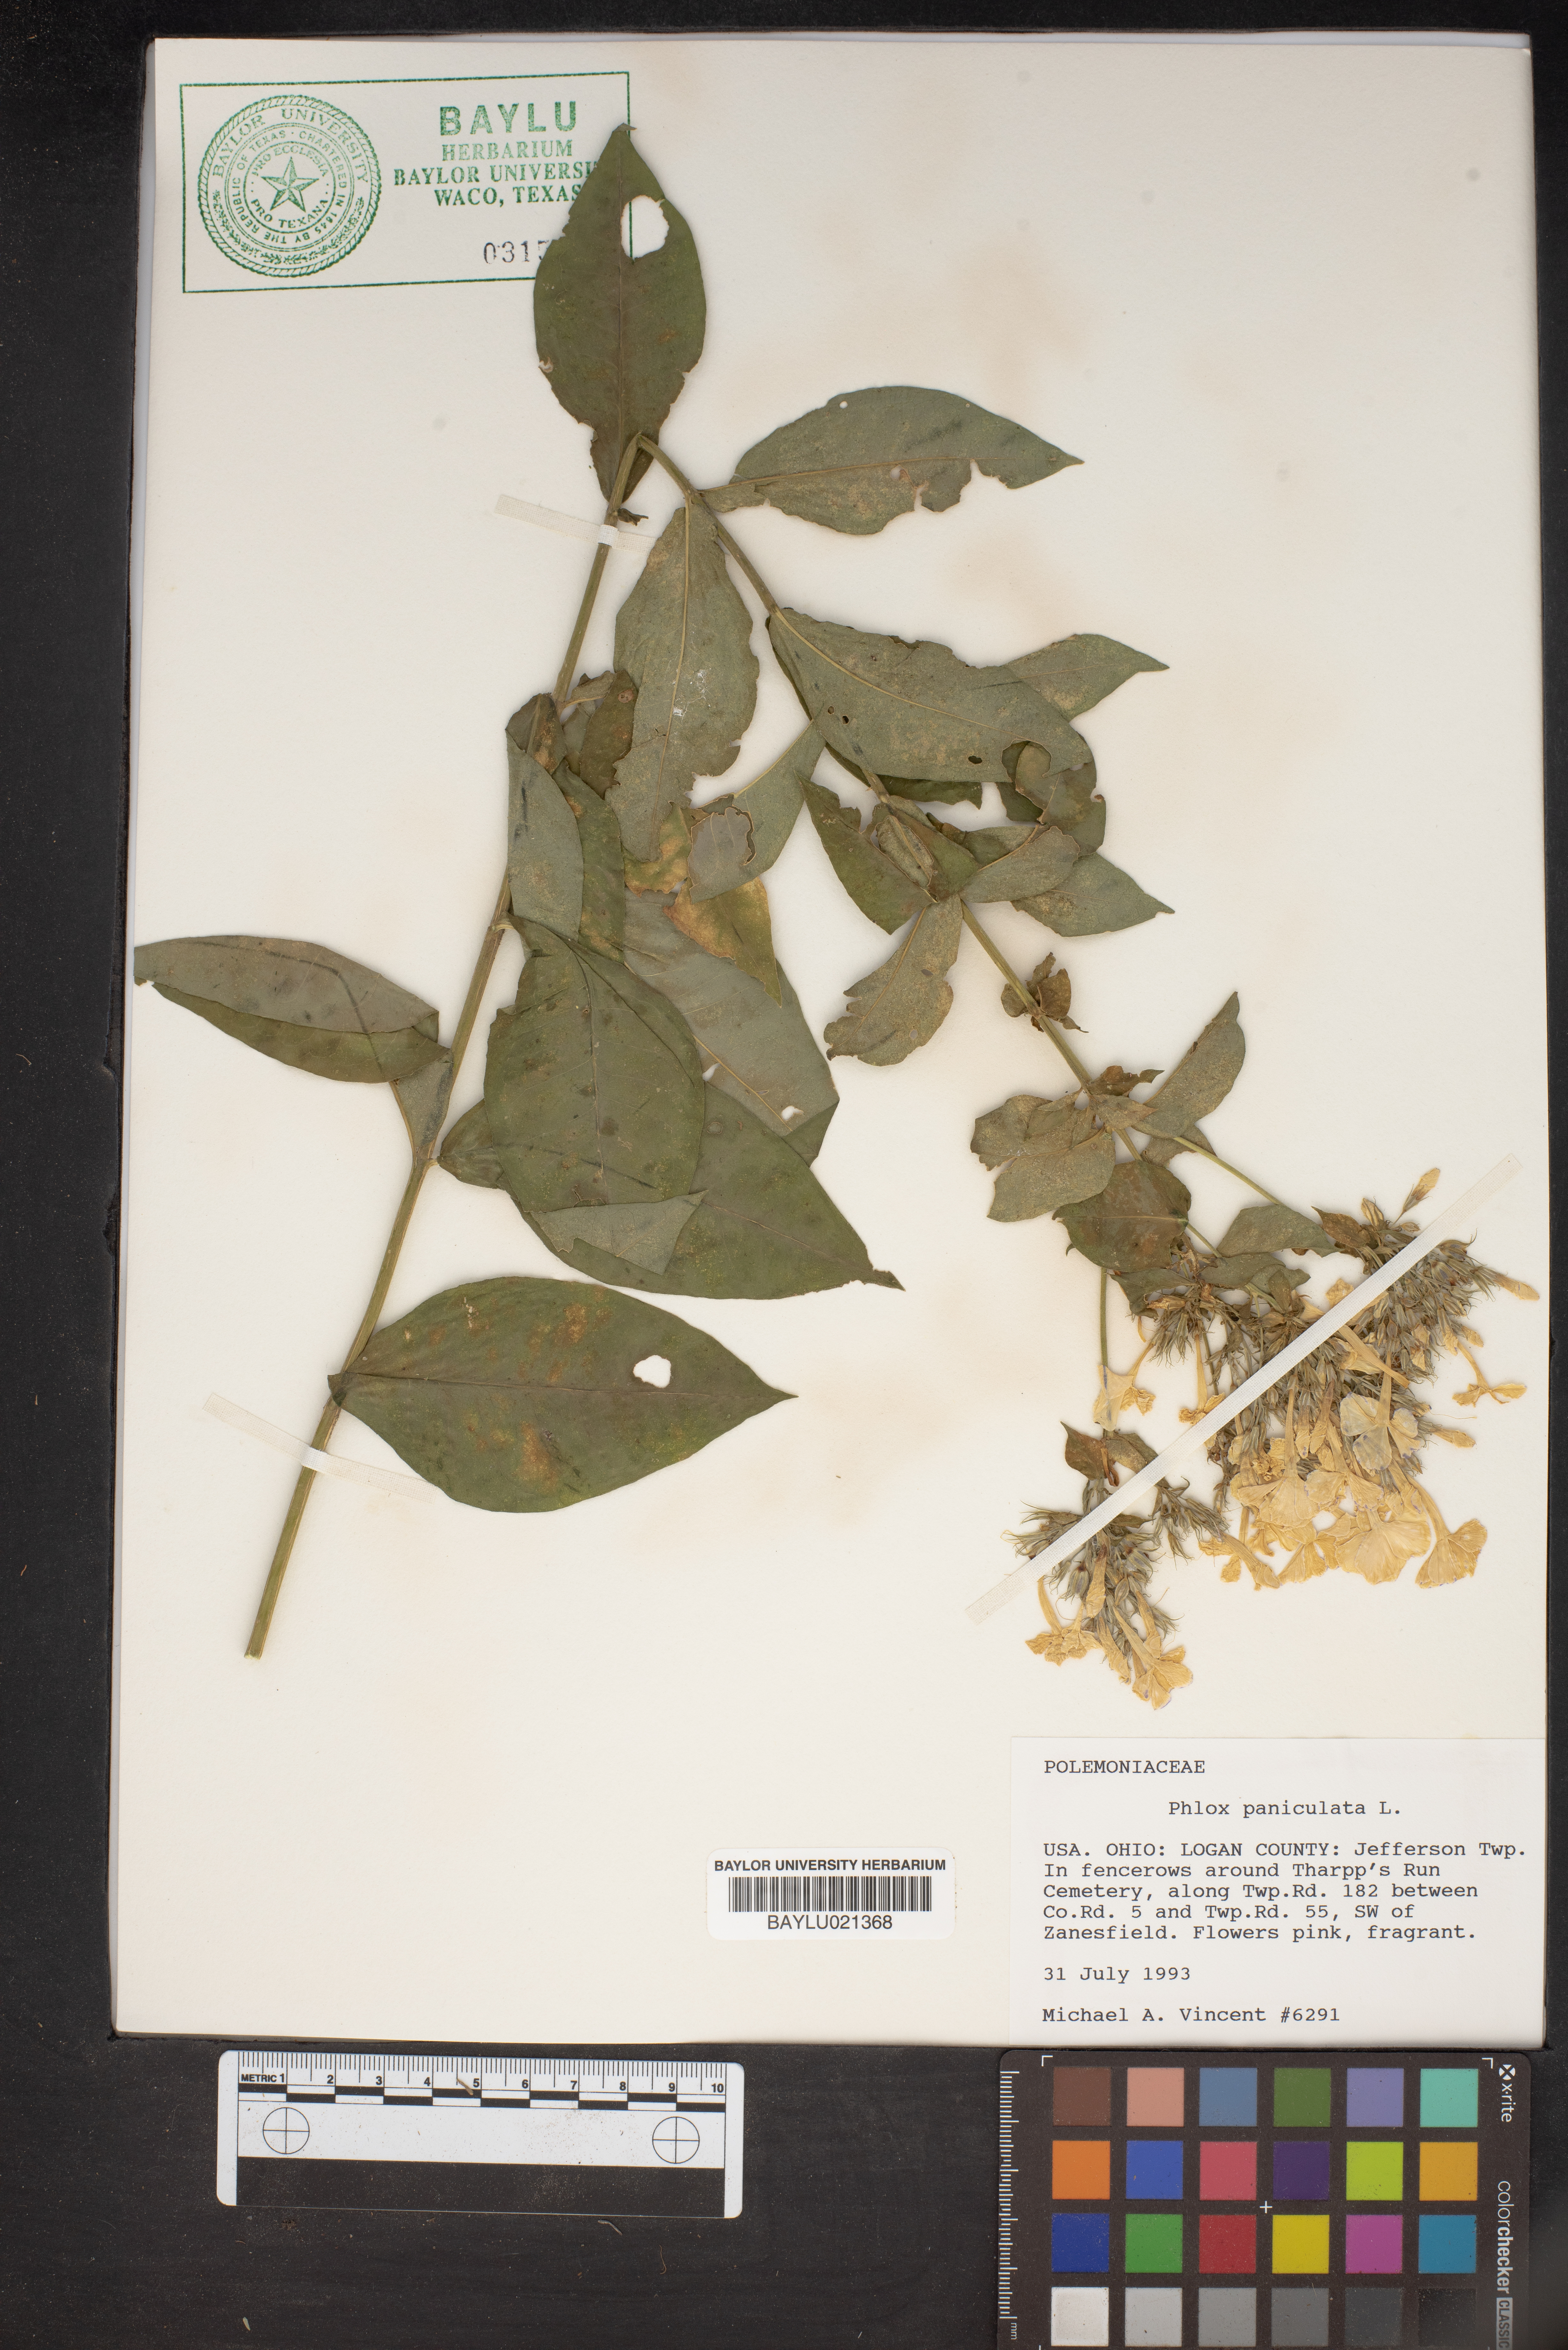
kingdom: Plantae
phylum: Tracheophyta
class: Magnoliopsida
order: Ericales
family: Polemoniaceae
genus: Phlox
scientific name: Phlox paniculata
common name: Fall phlox
